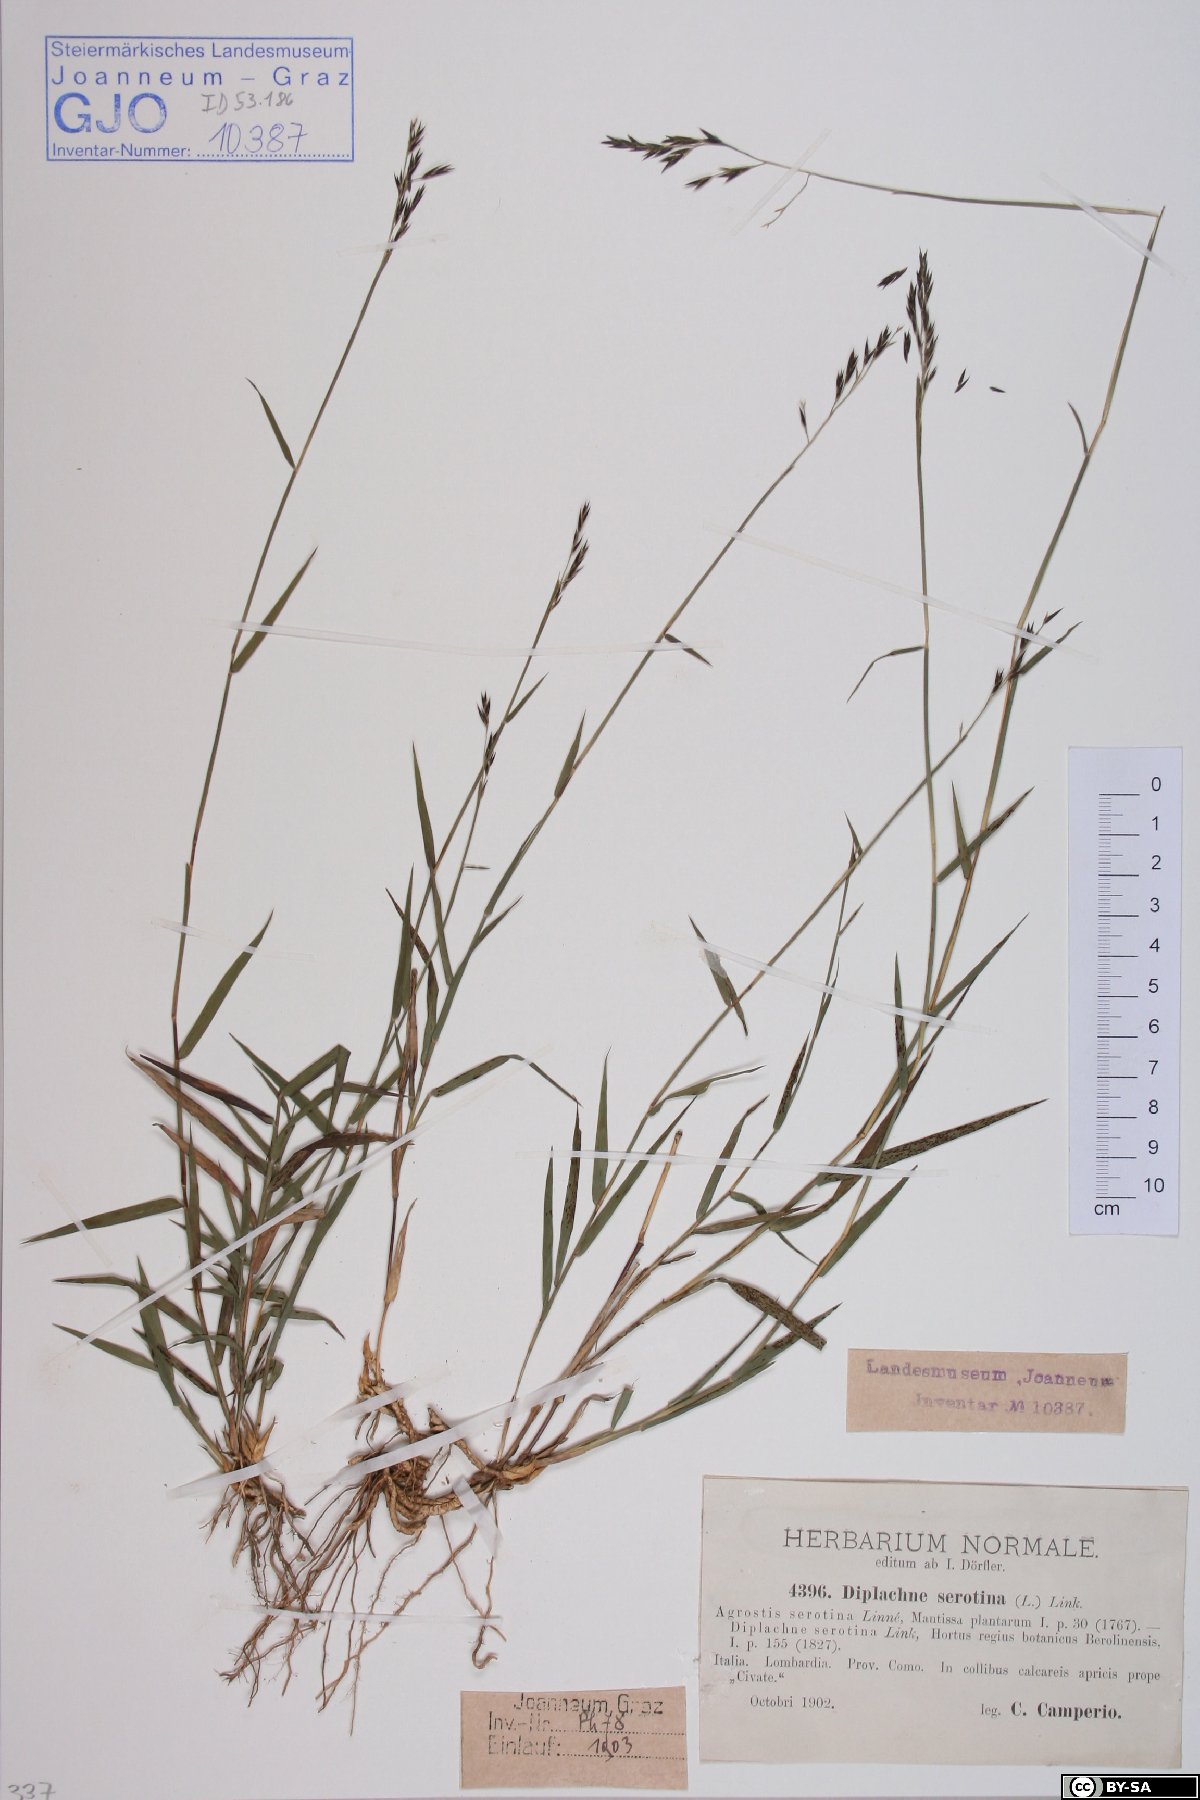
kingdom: Plantae
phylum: Tracheophyta
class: Liliopsida
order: Poales
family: Poaceae
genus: Cleistogenes
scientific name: Cleistogenes serotina
